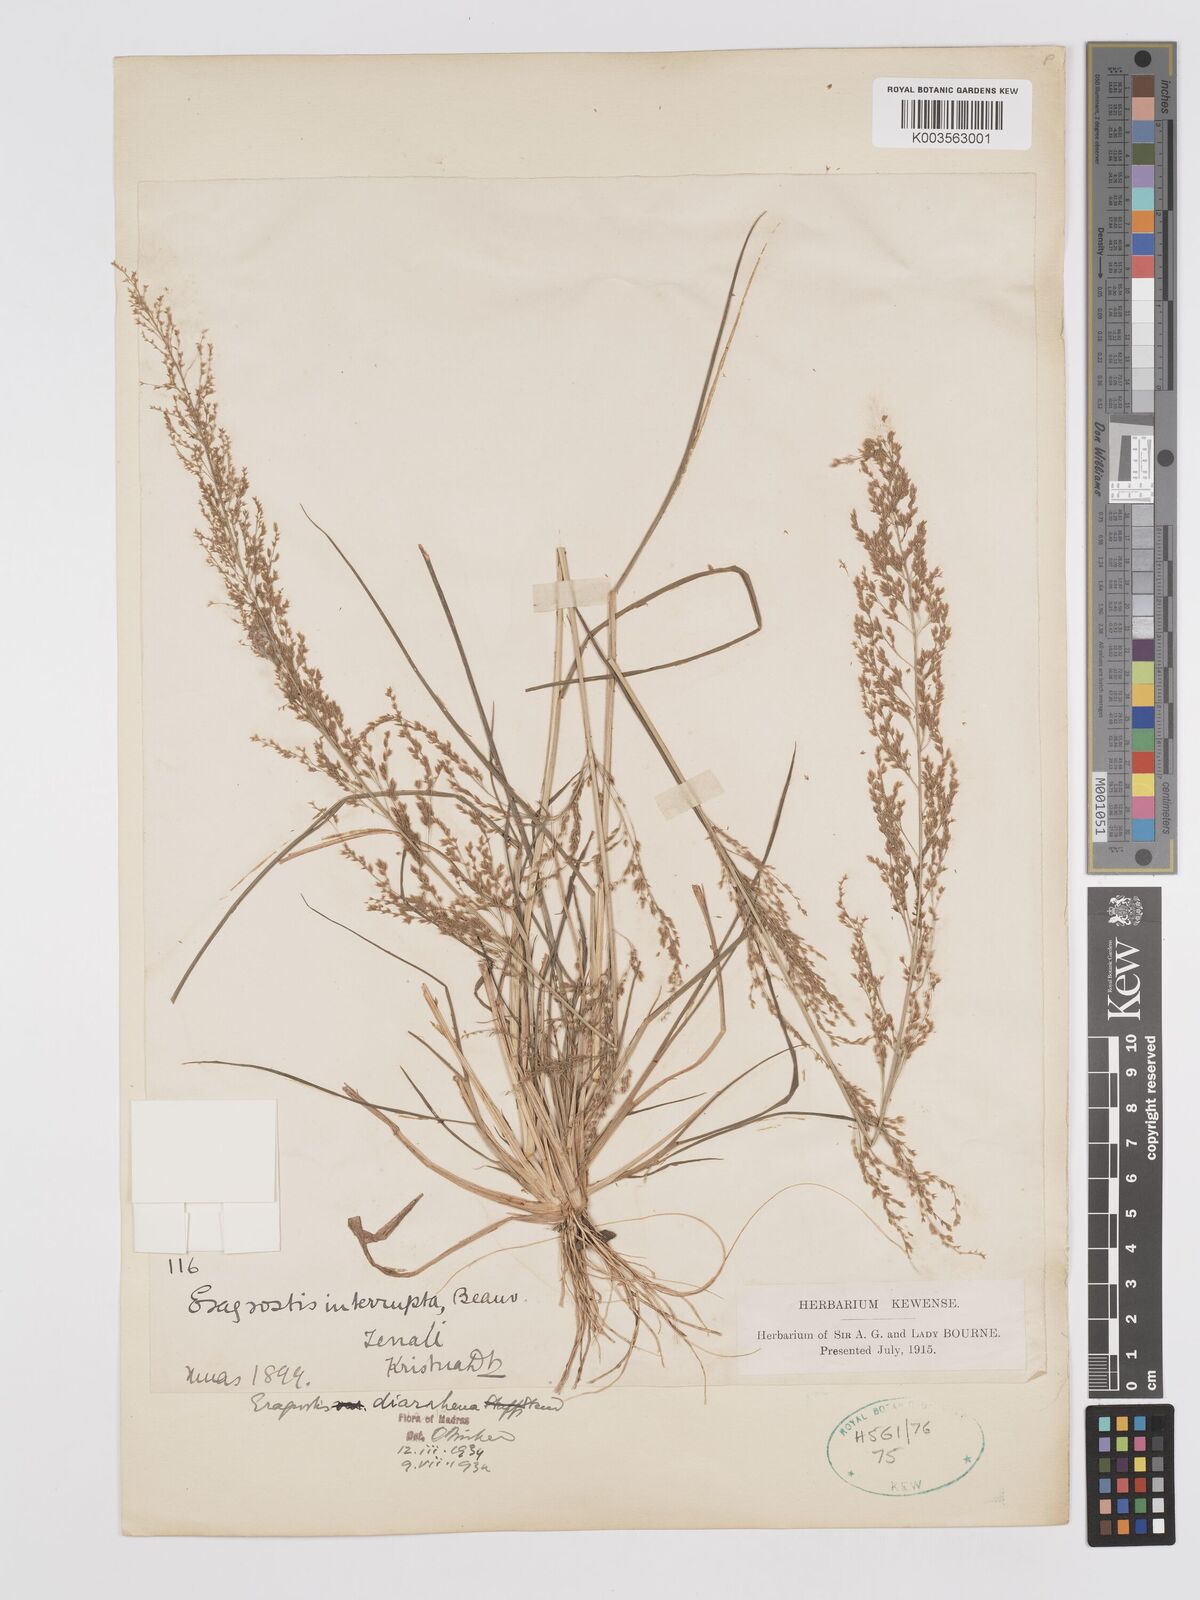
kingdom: Plantae
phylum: Tracheophyta
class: Liliopsida
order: Poales
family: Poaceae
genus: Eragrostis
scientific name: Eragrostis japonica
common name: Pond lovegrass
